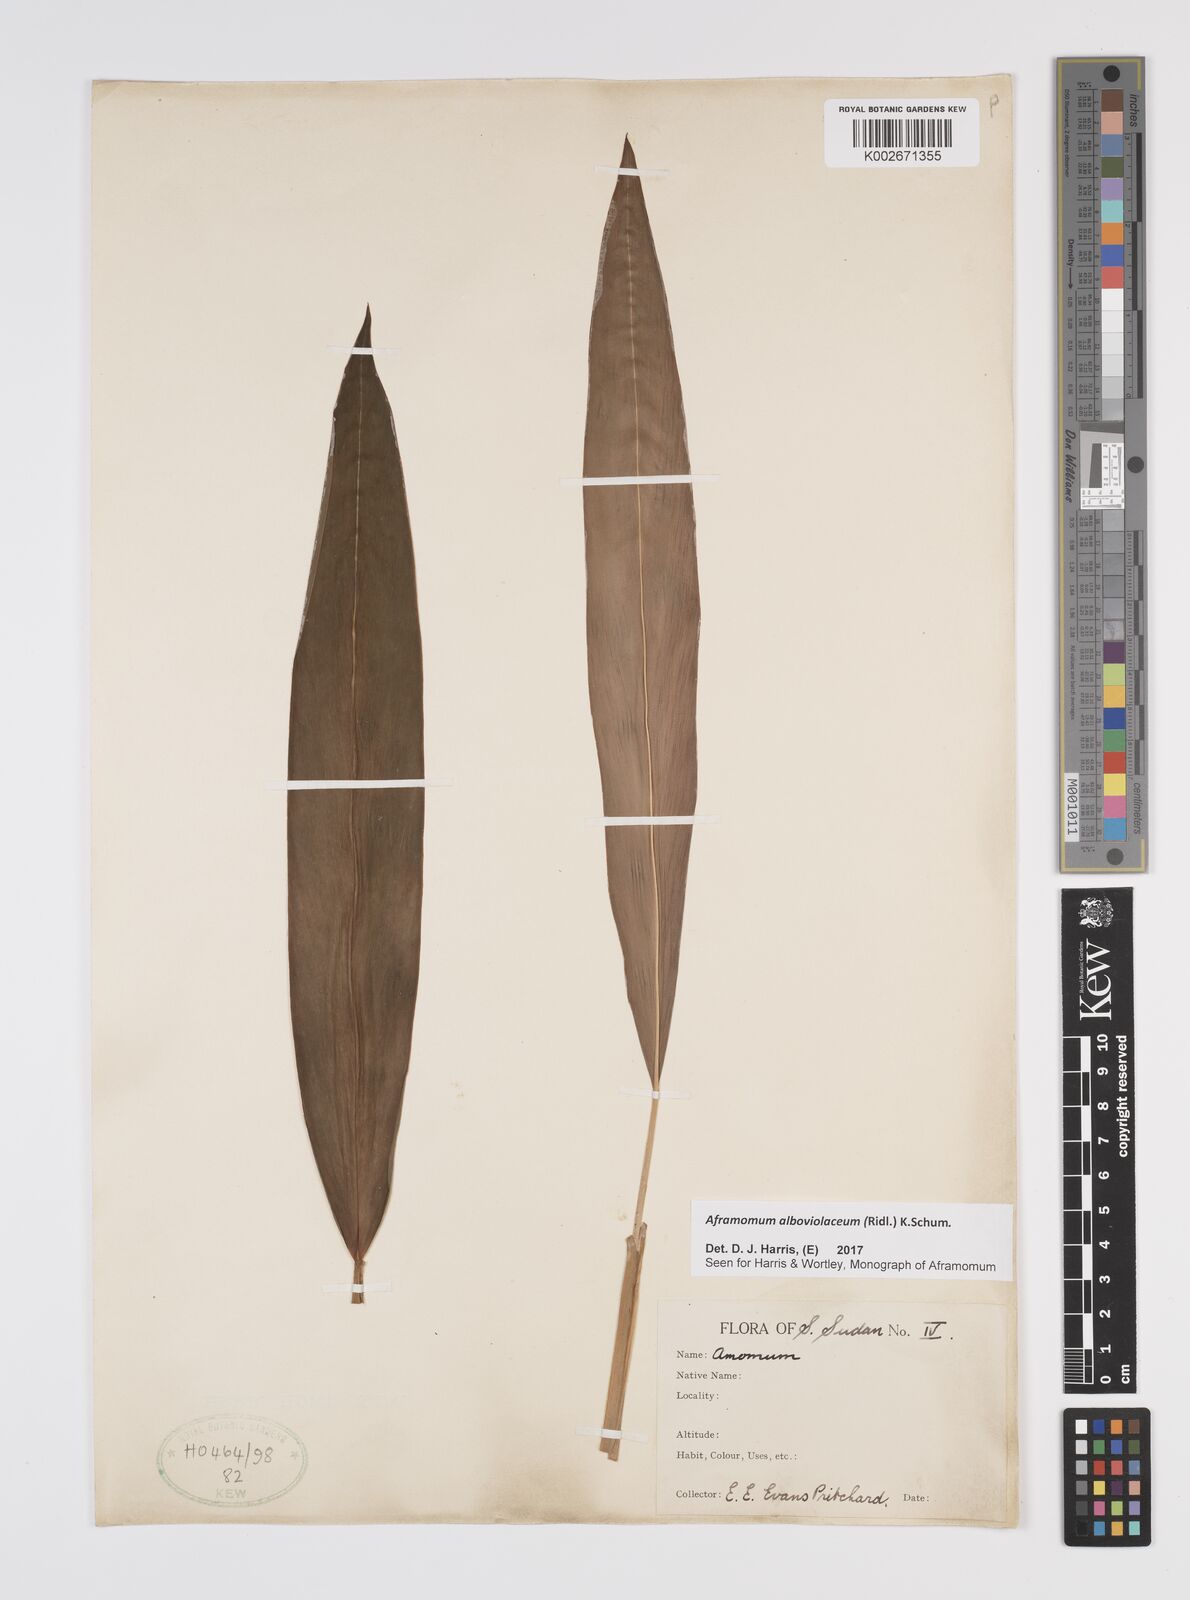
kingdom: Plantae
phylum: Tracheophyta
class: Liliopsida
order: Zingiberales
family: Zingiberaceae
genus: Aframomum
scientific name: Aframomum alboviolaceum
